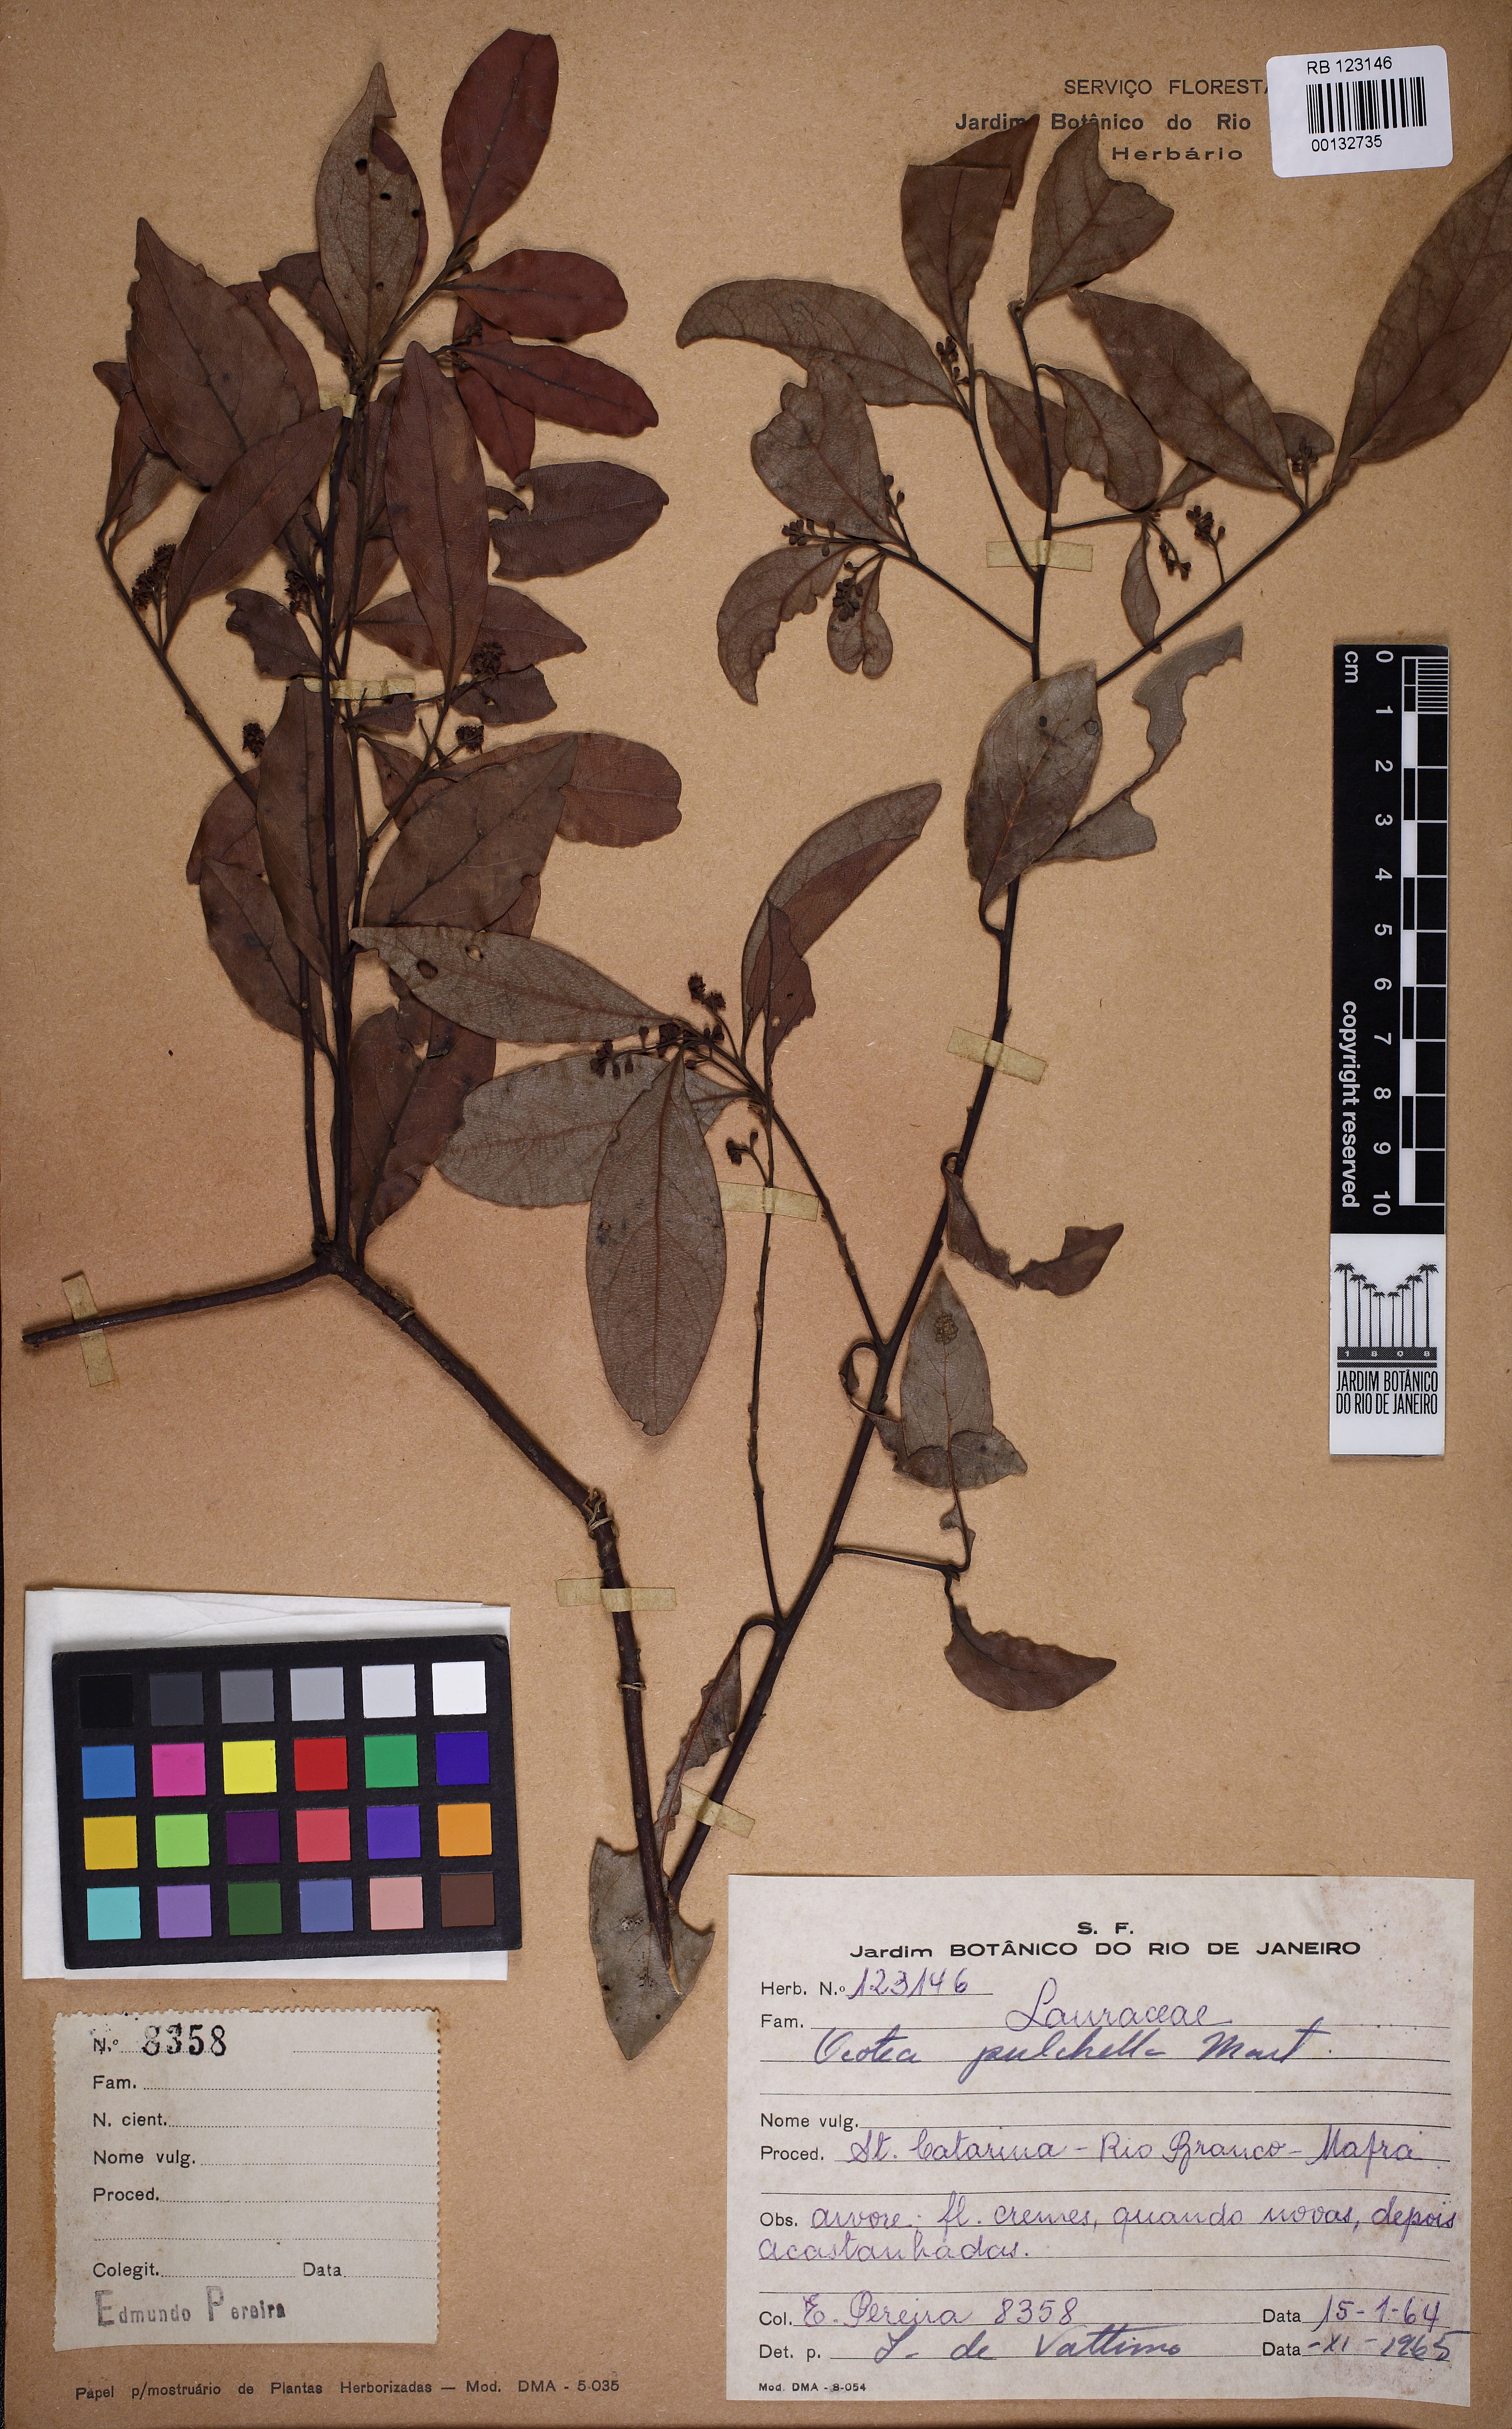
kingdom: Plantae
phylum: Tracheophyta
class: Magnoliopsida
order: Laurales
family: Lauraceae
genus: Mespilodaphne
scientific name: Mespilodaphne pulchella
